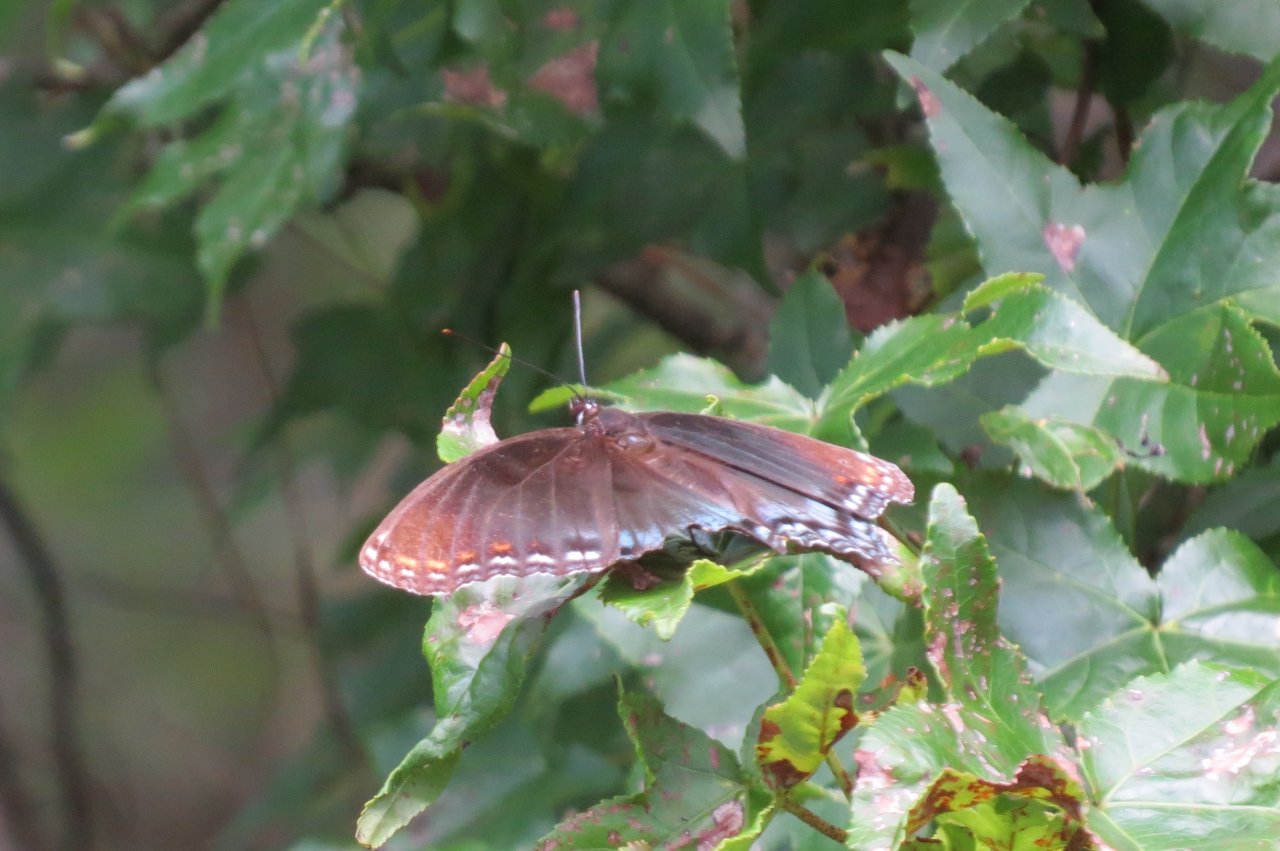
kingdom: Animalia
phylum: Arthropoda
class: Insecta
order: Lepidoptera
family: Nymphalidae
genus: Limenitis
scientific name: Limenitis astyanax
